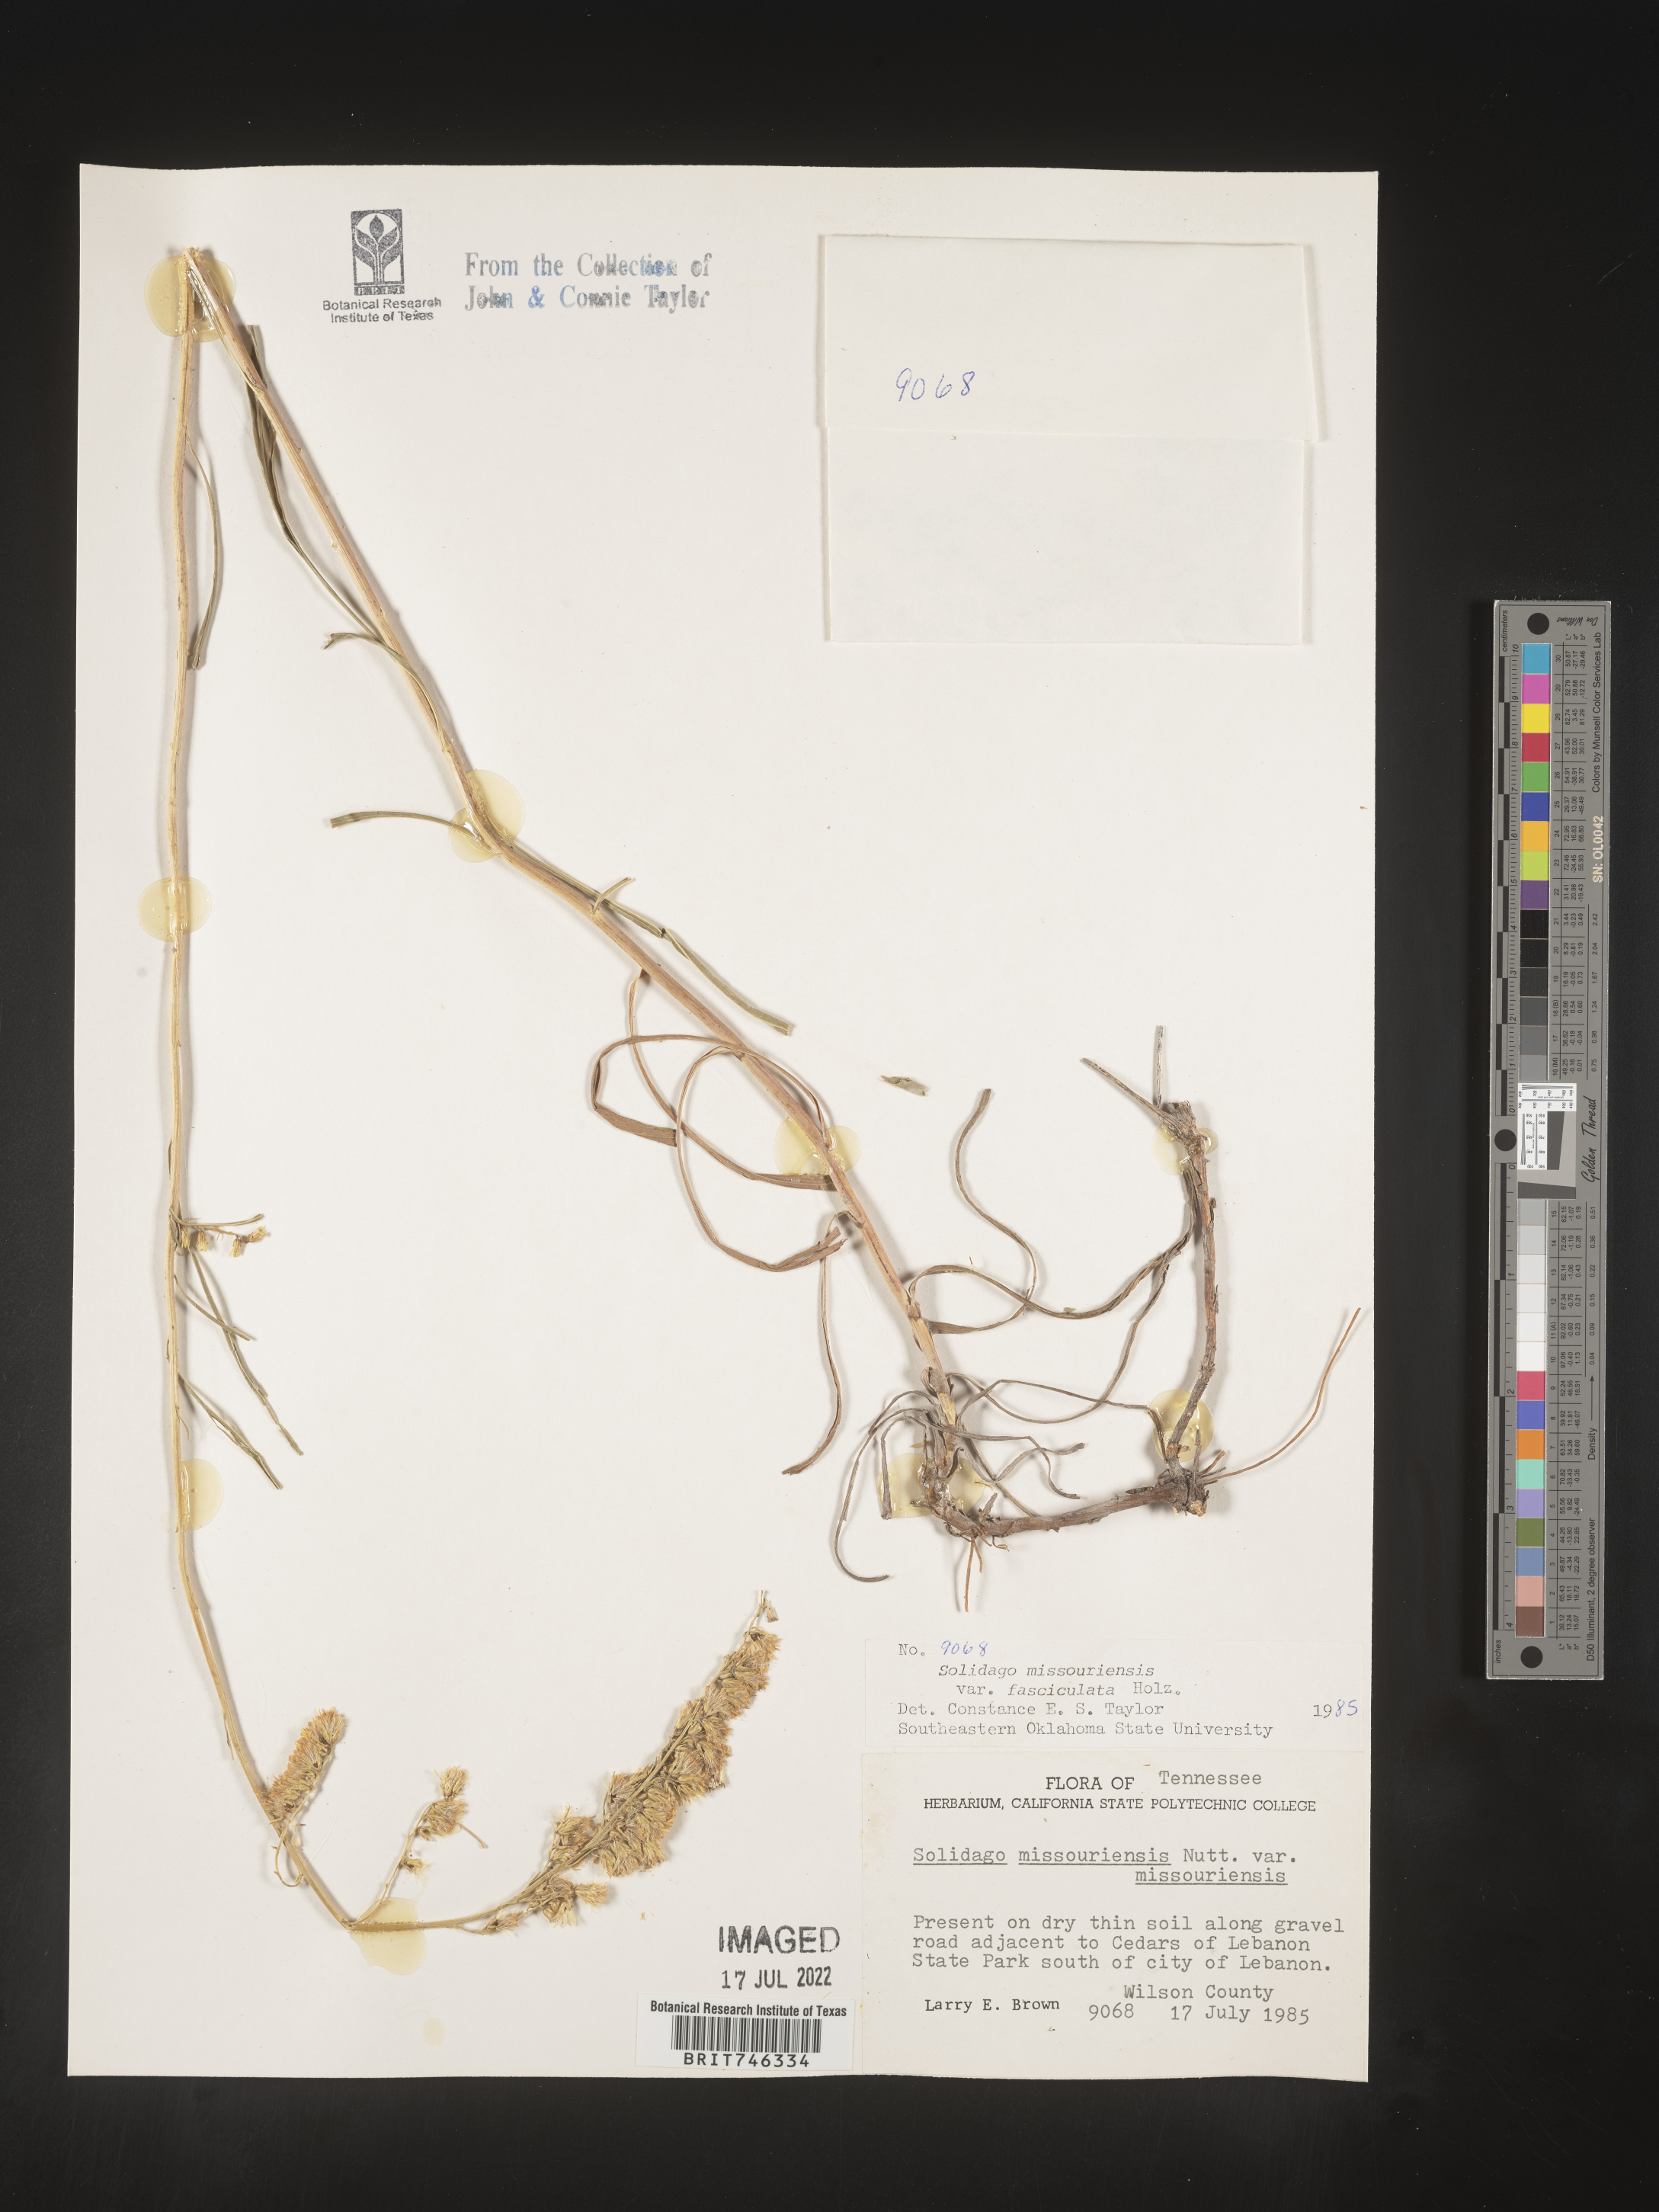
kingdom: Plantae
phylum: Tracheophyta
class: Magnoliopsida
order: Asterales
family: Asteraceae
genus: Solidago
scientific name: Solidago gattingeri
